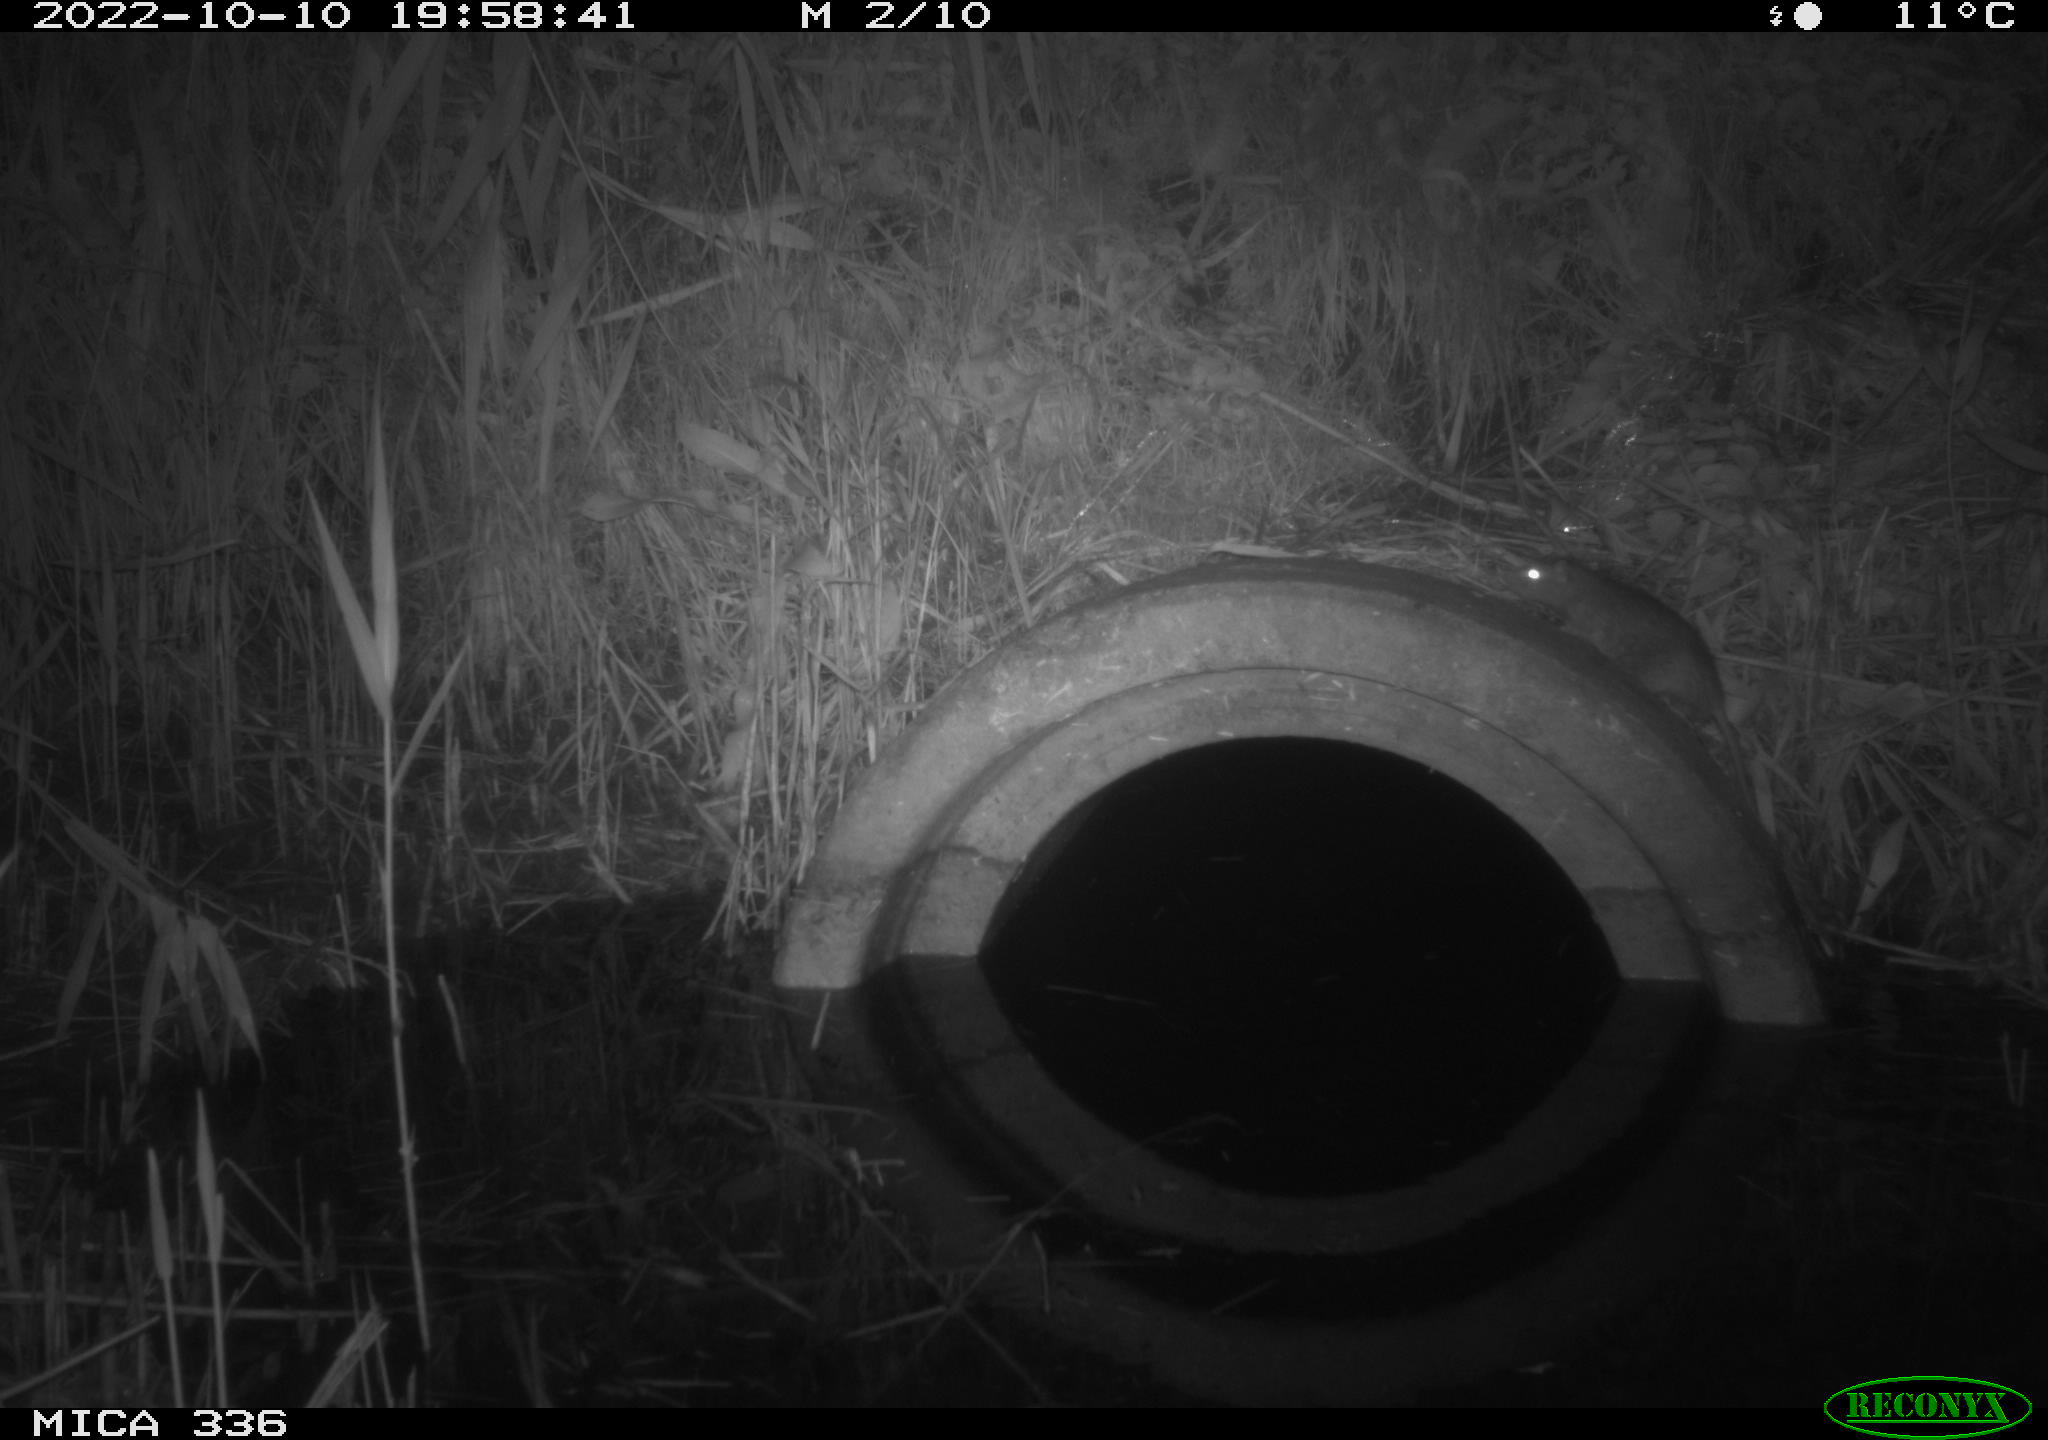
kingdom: Animalia
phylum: Chordata
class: Mammalia
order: Rodentia
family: Muridae
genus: Rattus
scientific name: Rattus norvegicus
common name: Brown rat
